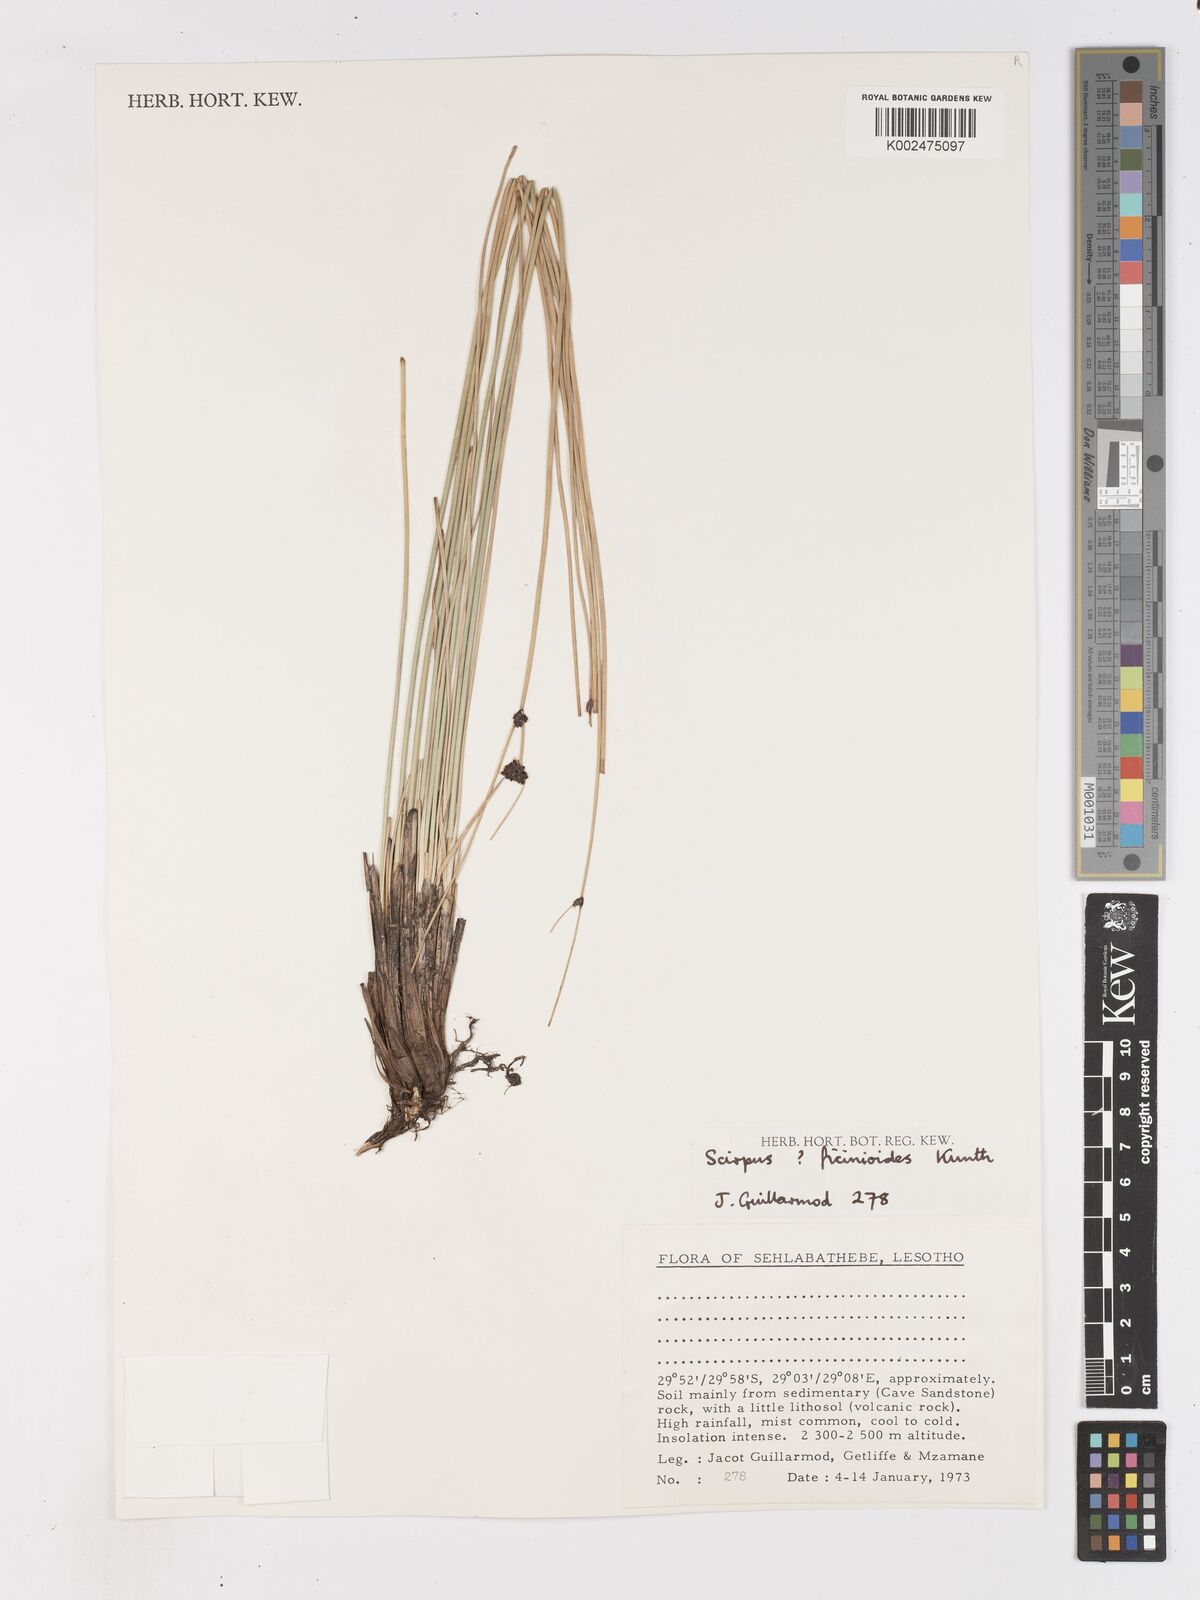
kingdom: Plantae
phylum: Tracheophyta
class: Liliopsida
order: Poales
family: Cyperaceae
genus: Ficinia
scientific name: Ficinia
